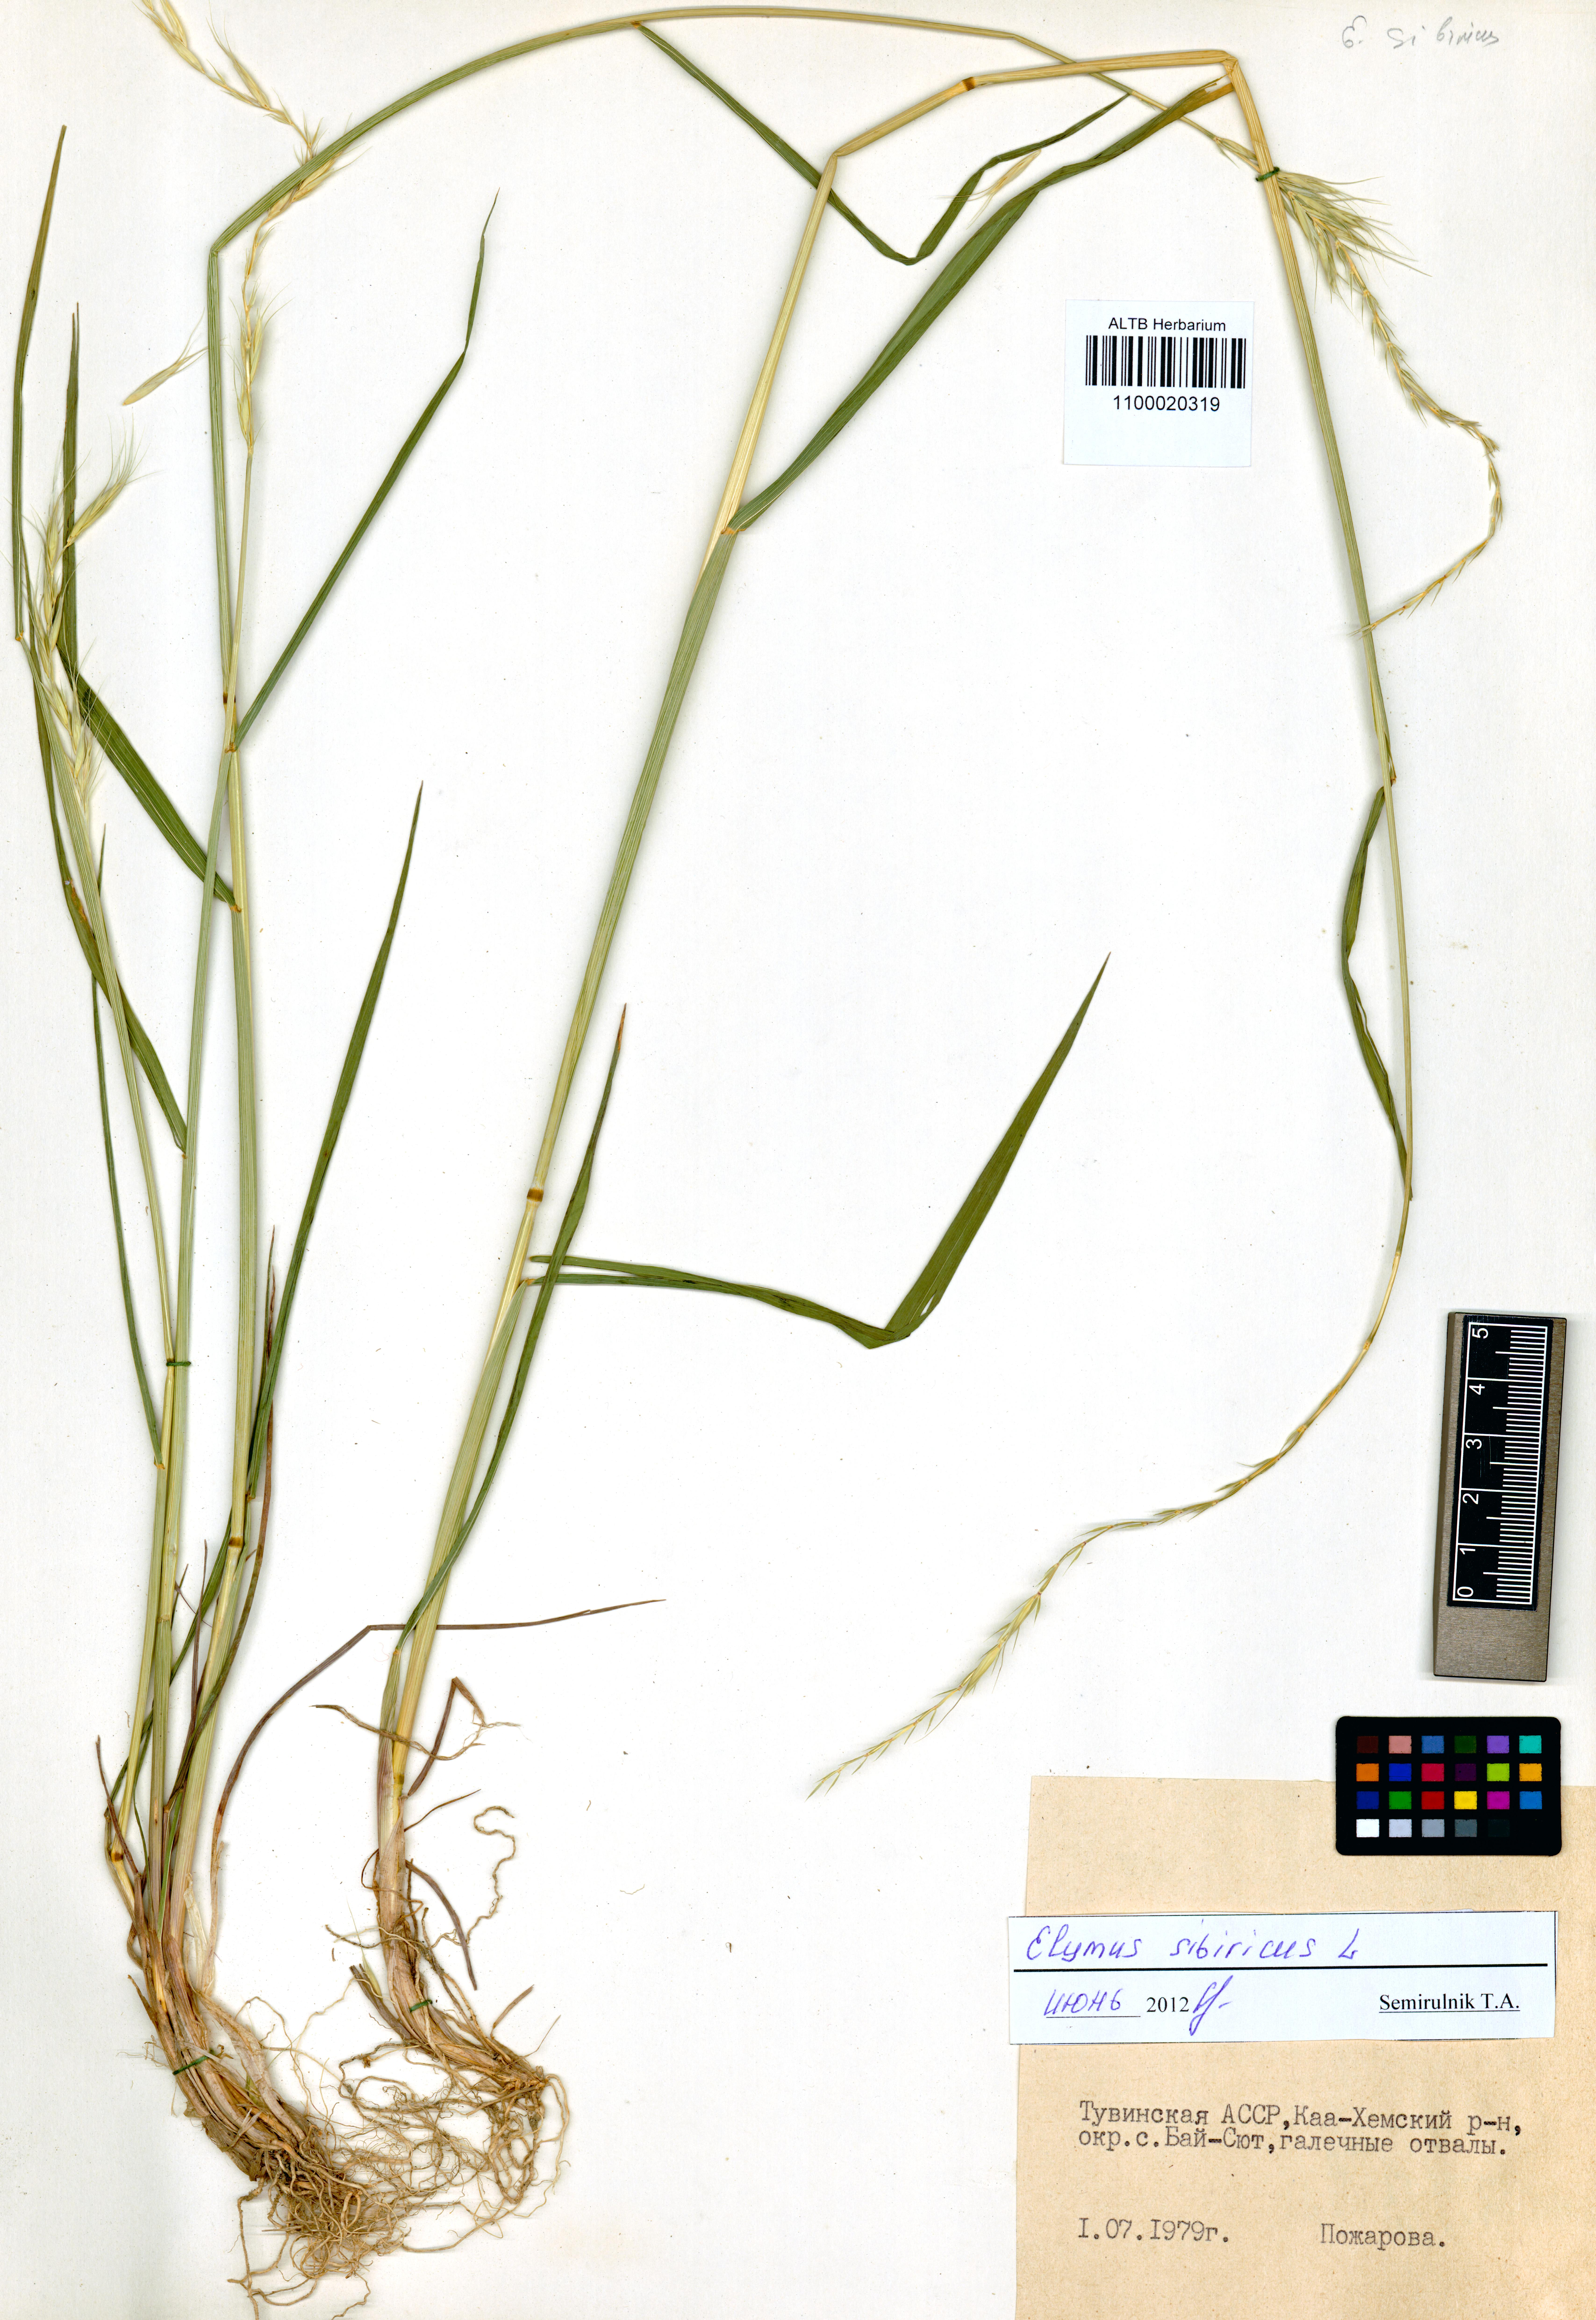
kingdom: Plantae
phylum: Tracheophyta
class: Liliopsida
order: Poales
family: Poaceae
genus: Elymus
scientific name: Elymus sibiricus
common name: Siberian wildrye
